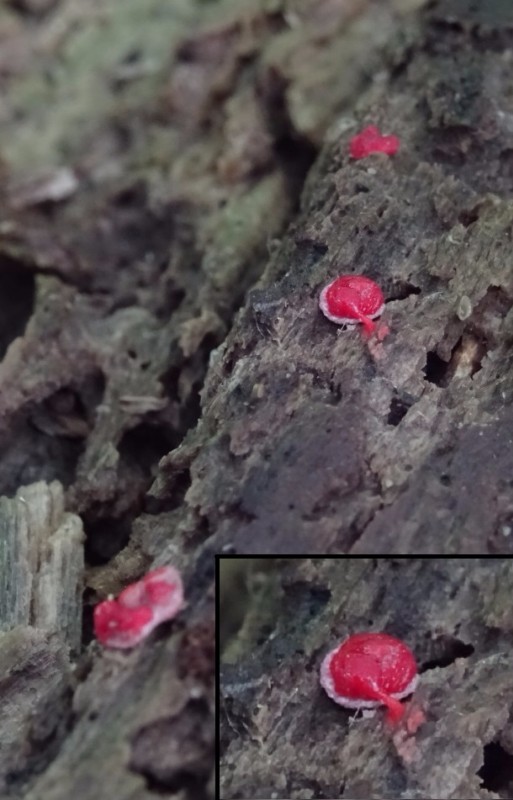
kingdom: Protozoa
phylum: Mycetozoa
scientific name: Mycetozoa
